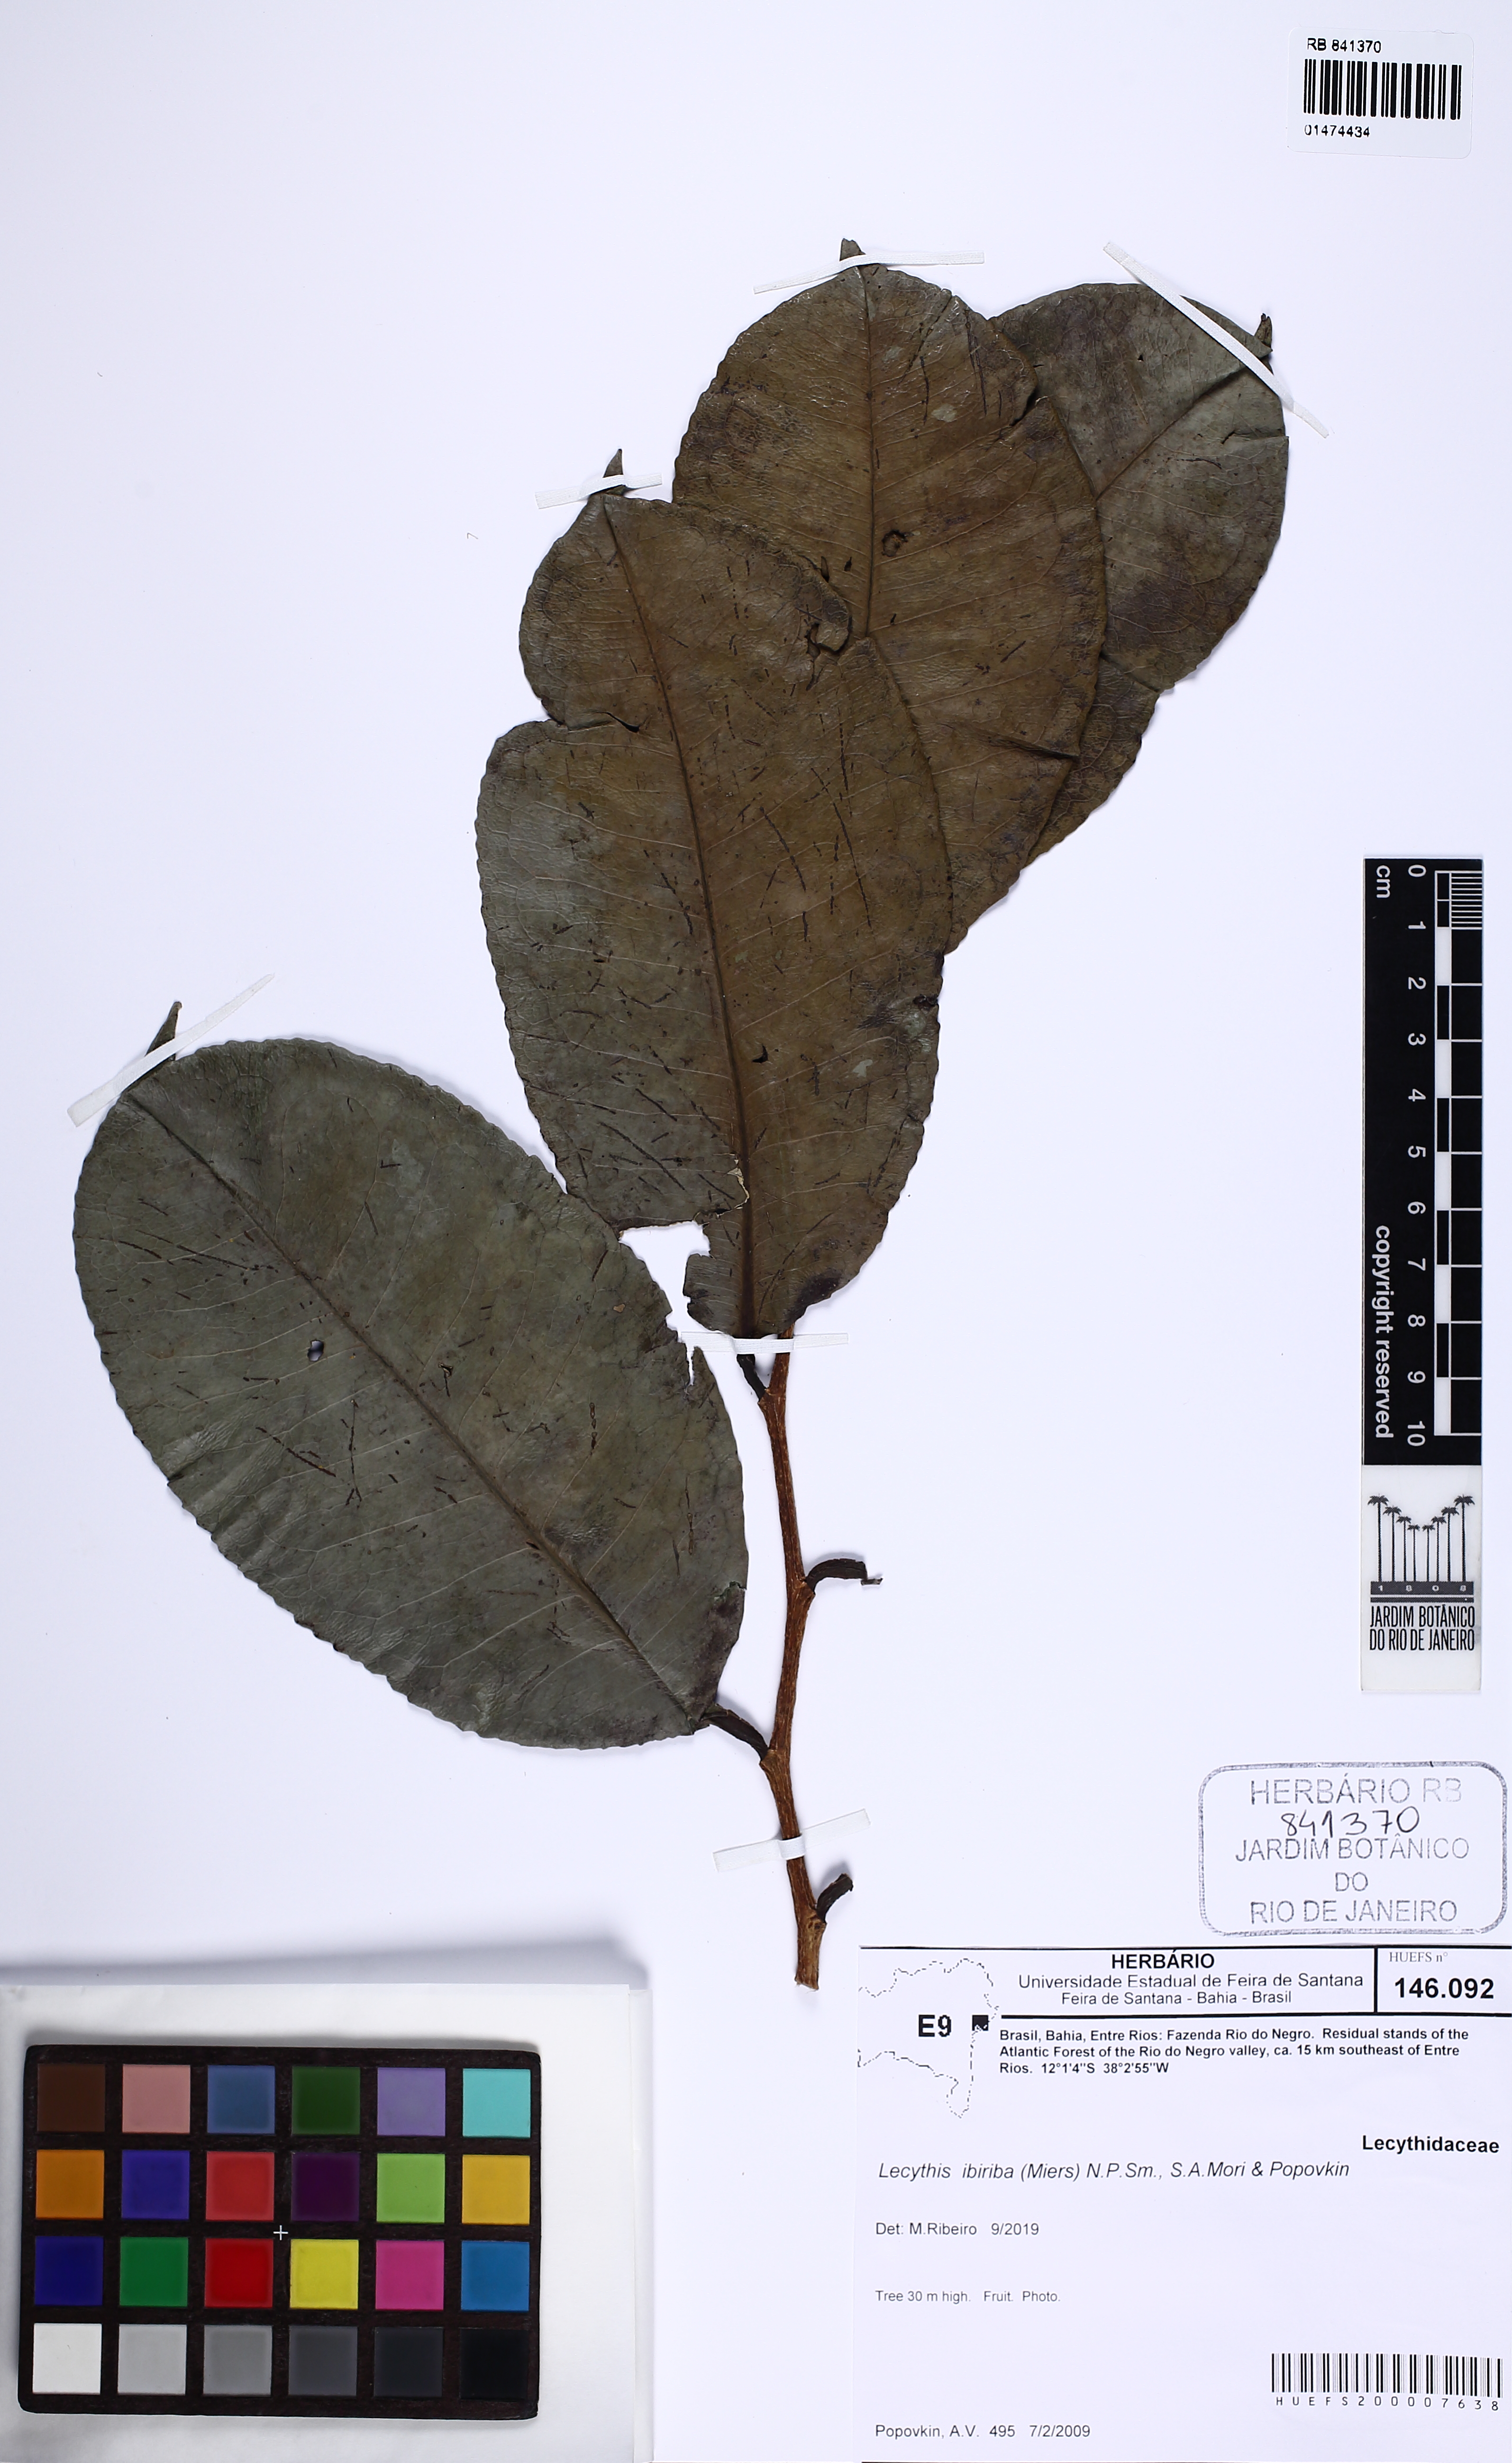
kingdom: Plantae
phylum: Tracheophyta
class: Magnoliopsida
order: Ericales
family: Lecythidaceae
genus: Lecythis
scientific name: Lecythis ibiriba
